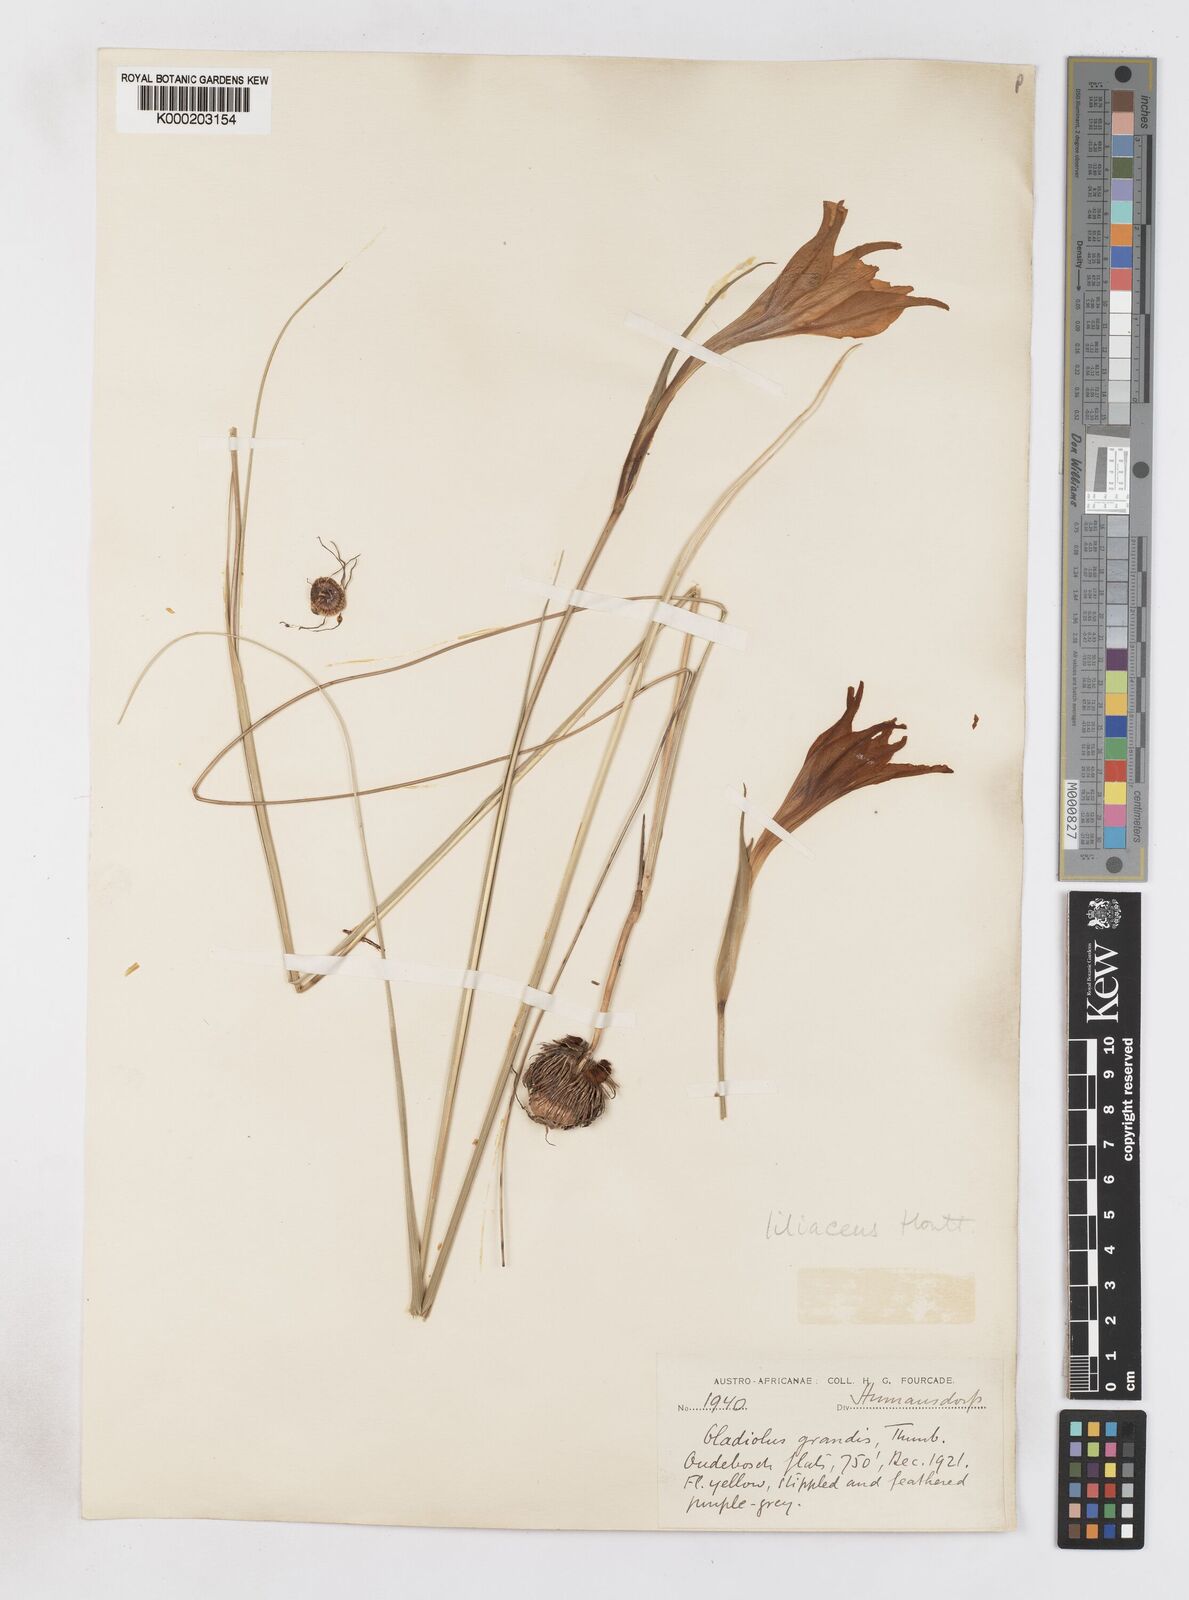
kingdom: Plantae
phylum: Tracheophyta
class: Liliopsida
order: Asparagales
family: Iridaceae
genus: Gladiolus
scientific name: Gladiolus liliaceus
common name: Large brown afrikaner
